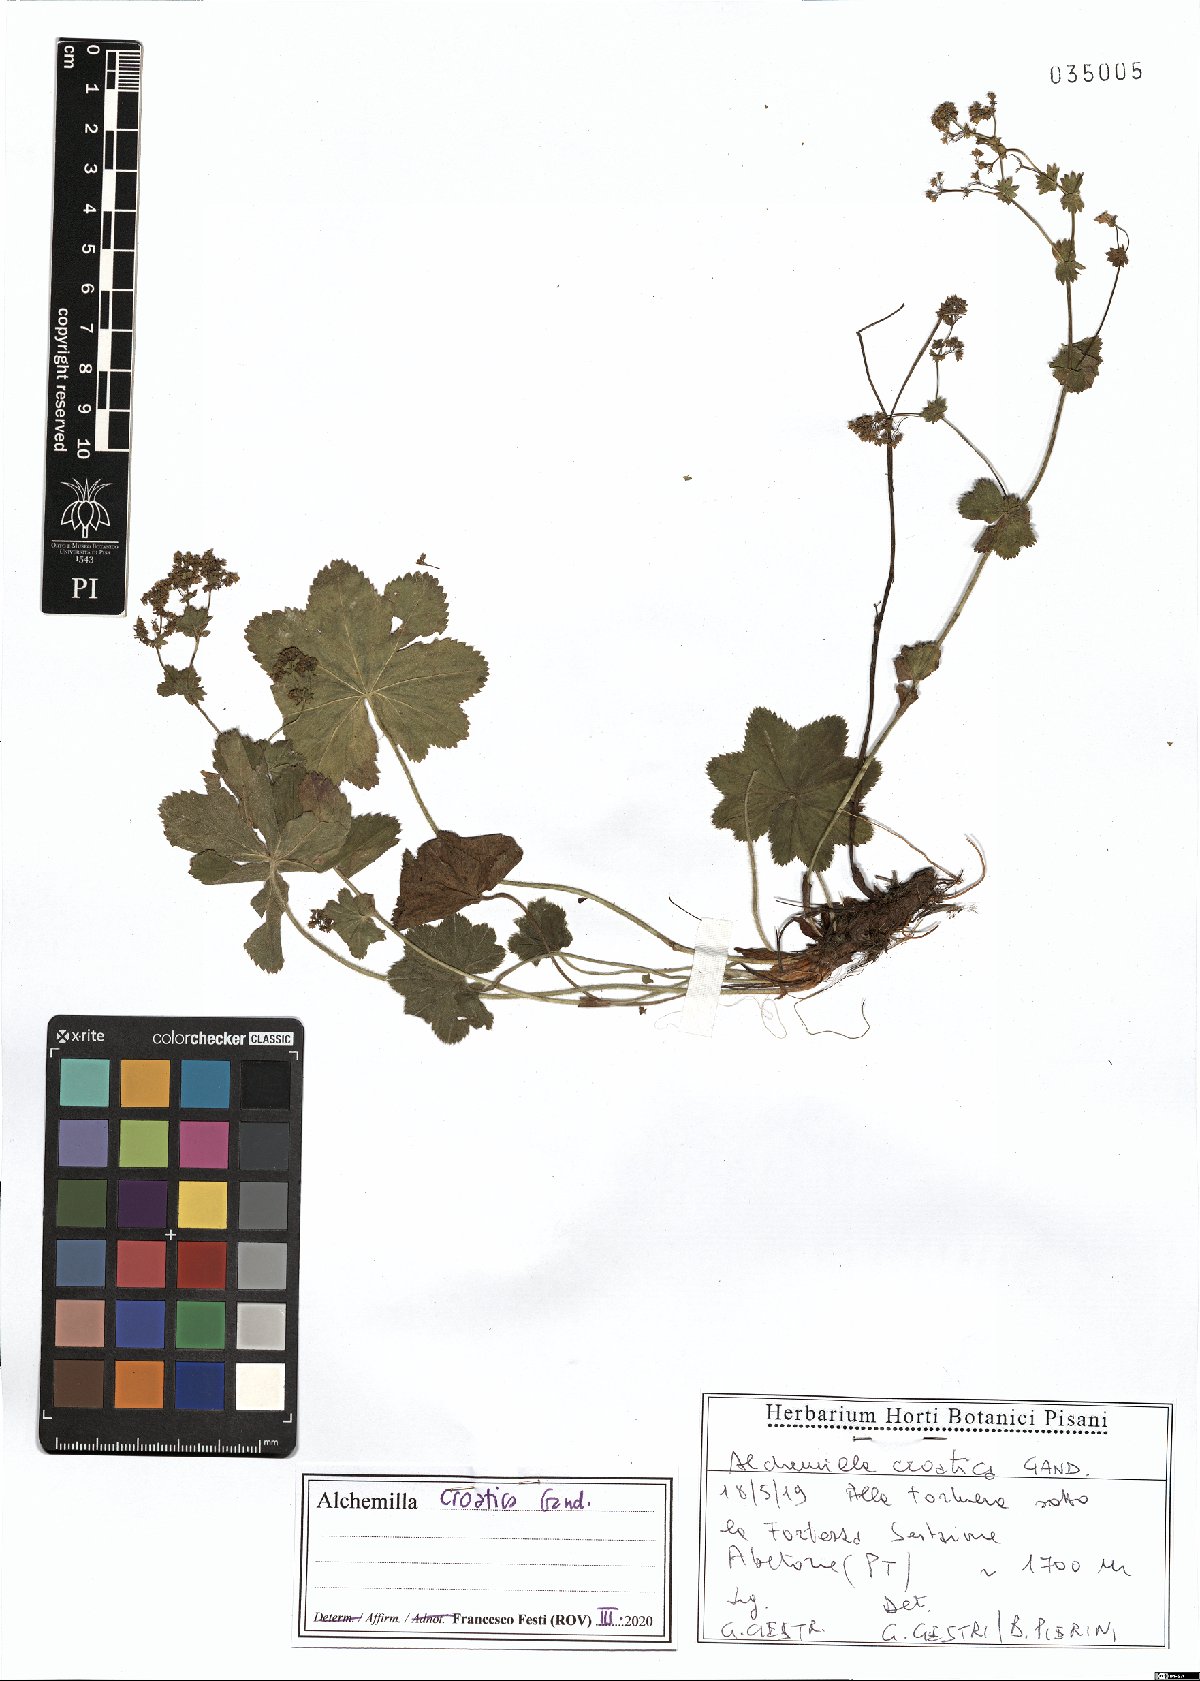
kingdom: Plantae
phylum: Tracheophyta
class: Magnoliopsida
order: Rosales
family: Rosaceae
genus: Alchemilla
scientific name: Alchemilla croatica
